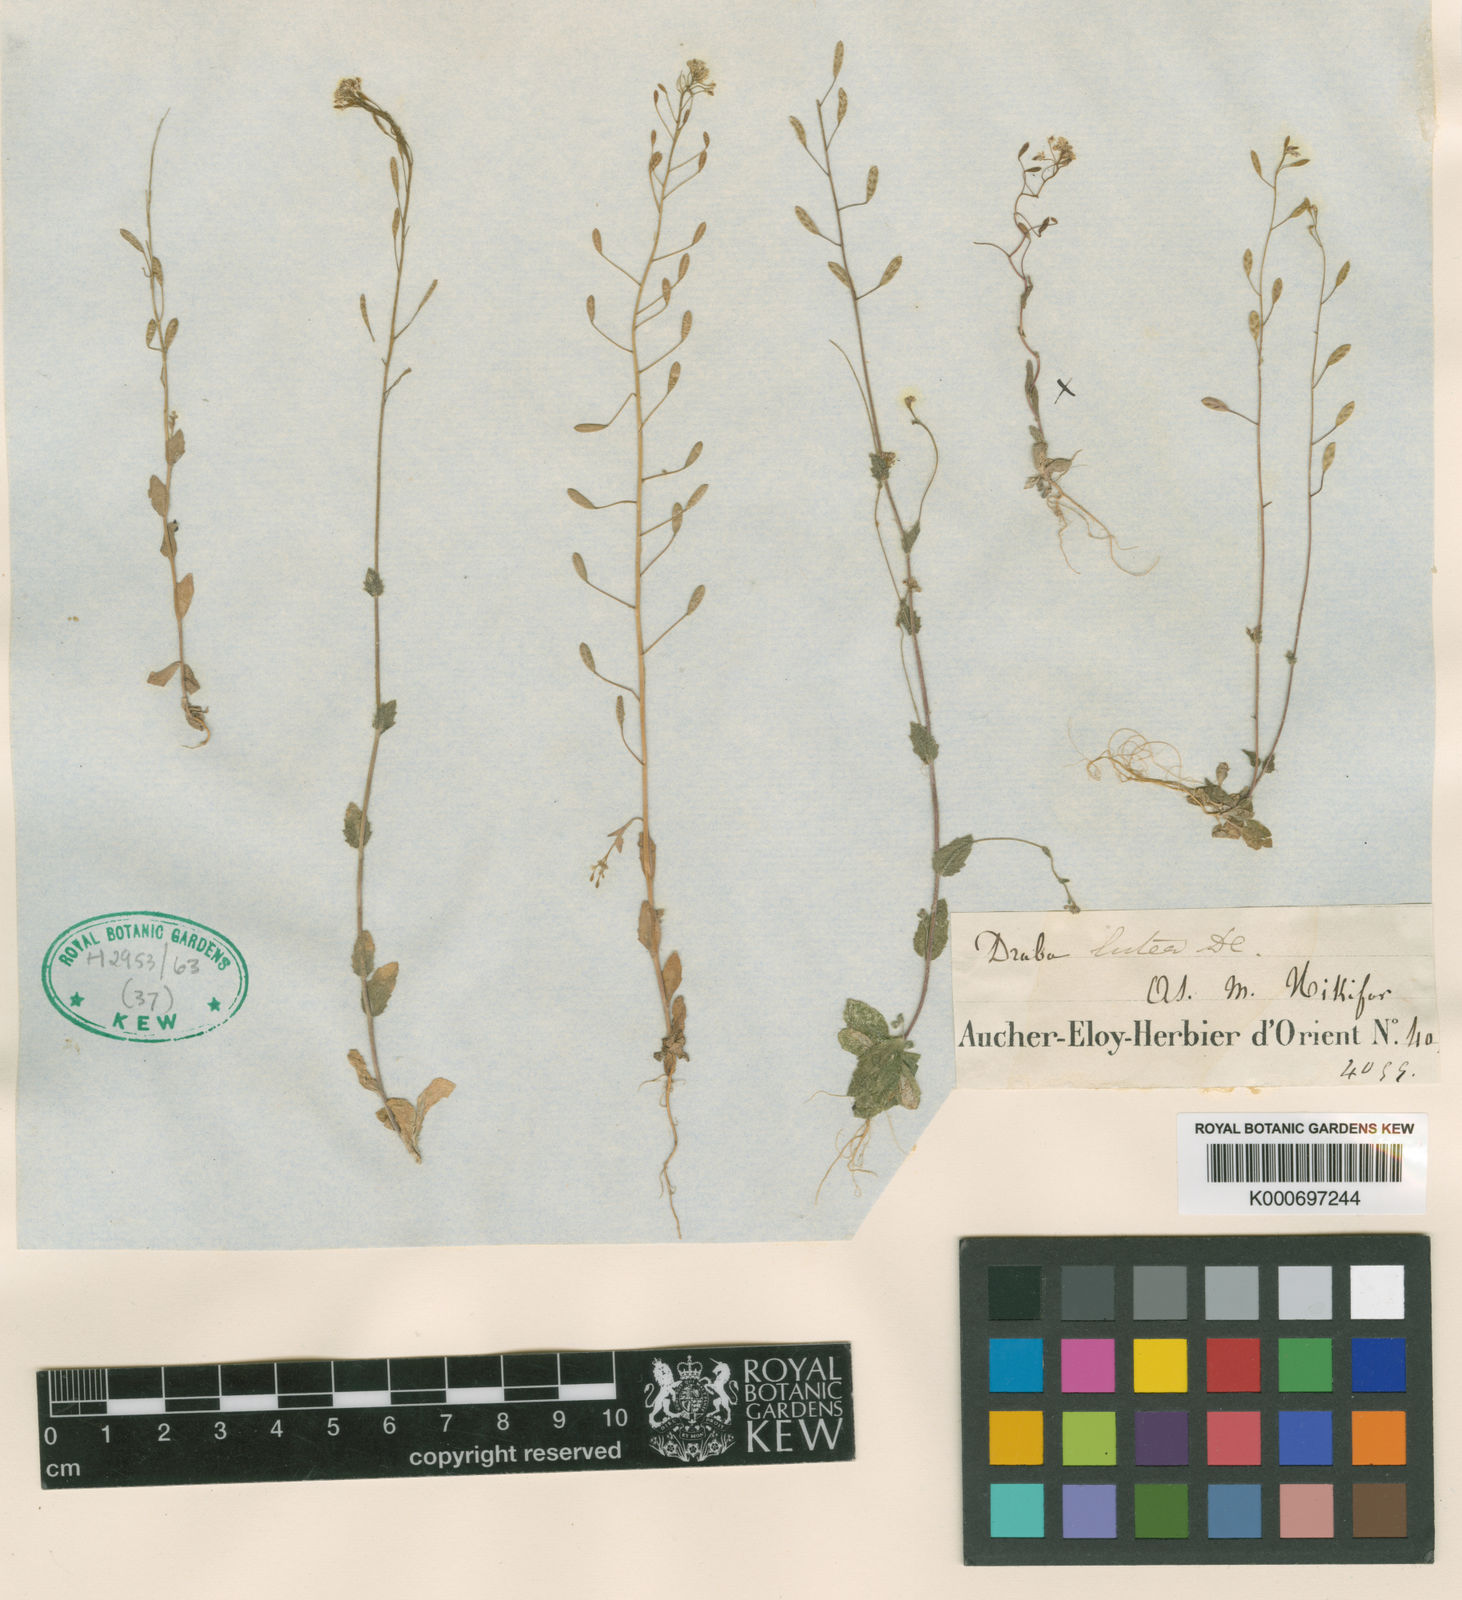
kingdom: Plantae
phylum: Tracheophyta
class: Magnoliopsida
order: Brassicales
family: Brassicaceae
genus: Draba
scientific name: Draba nemorosa
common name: Wood whitlow-grass
